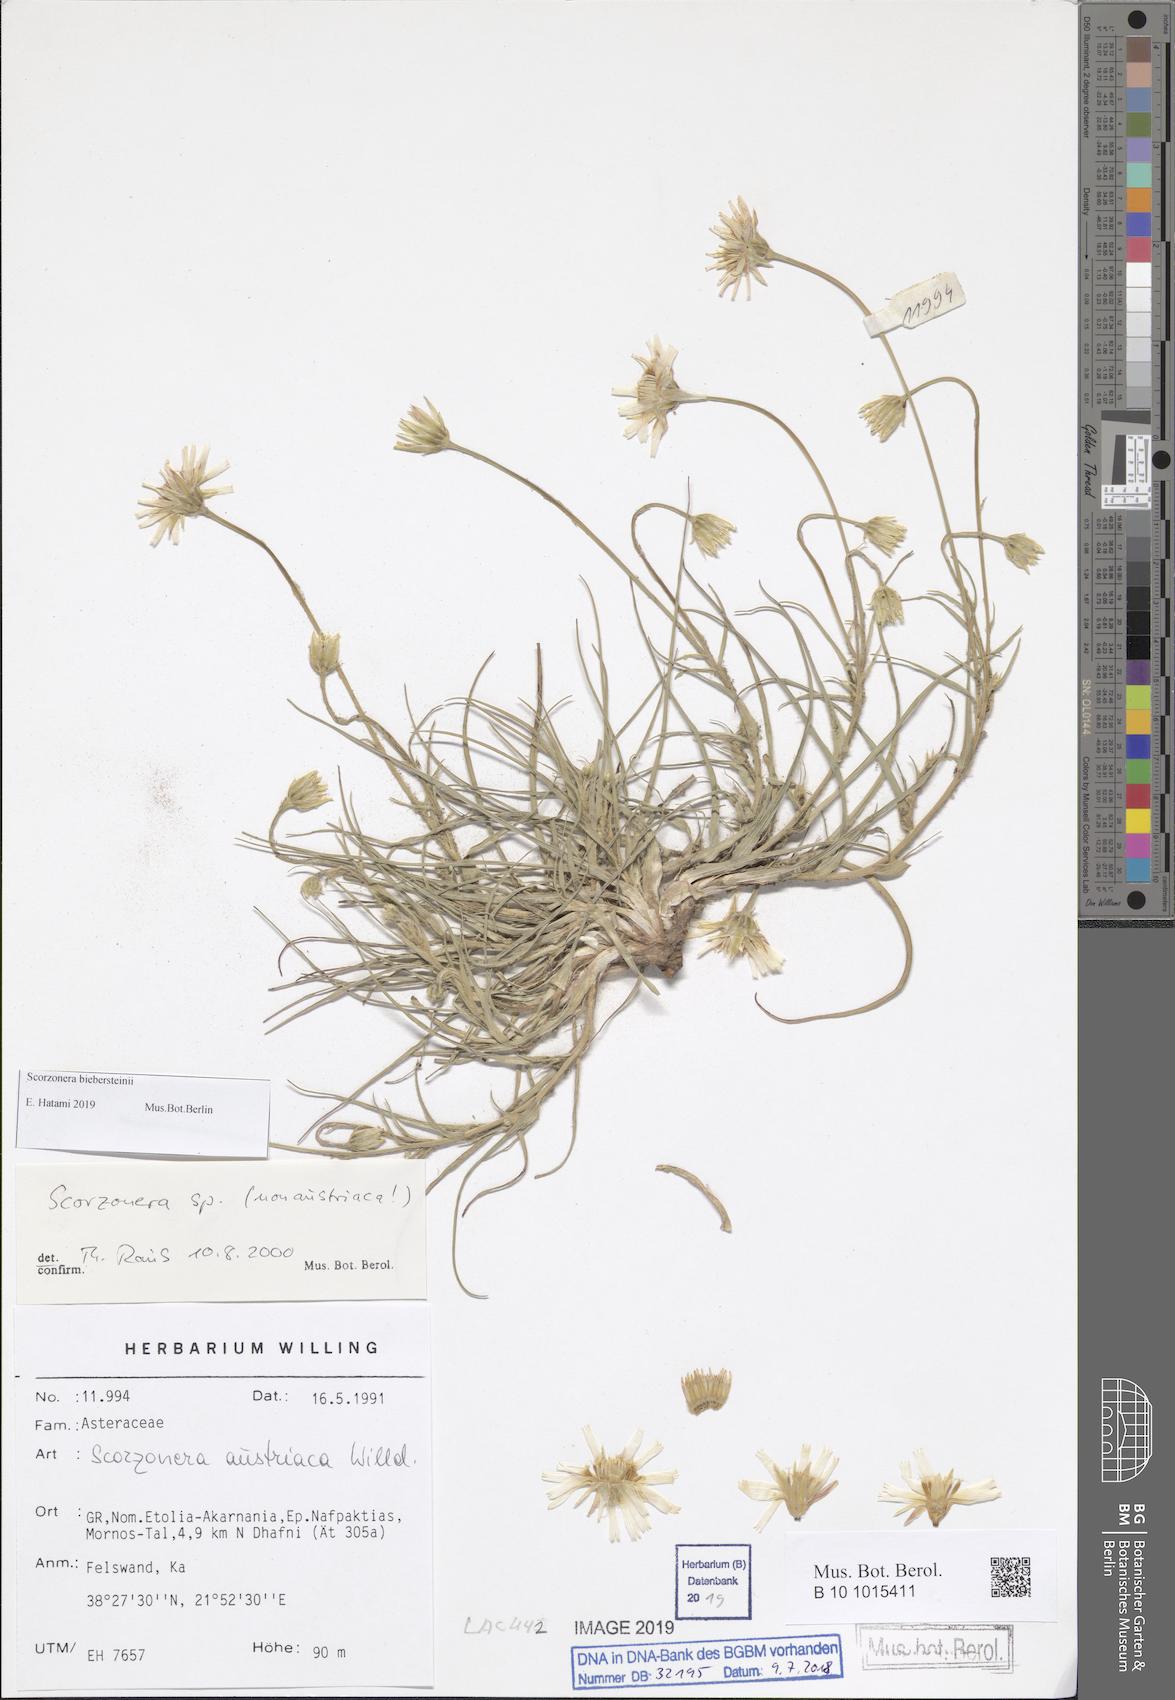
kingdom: Plantae
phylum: Tracheophyta
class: Magnoliopsida
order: Asterales
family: Asteraceae
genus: Gelasia
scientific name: Gelasia doriae
